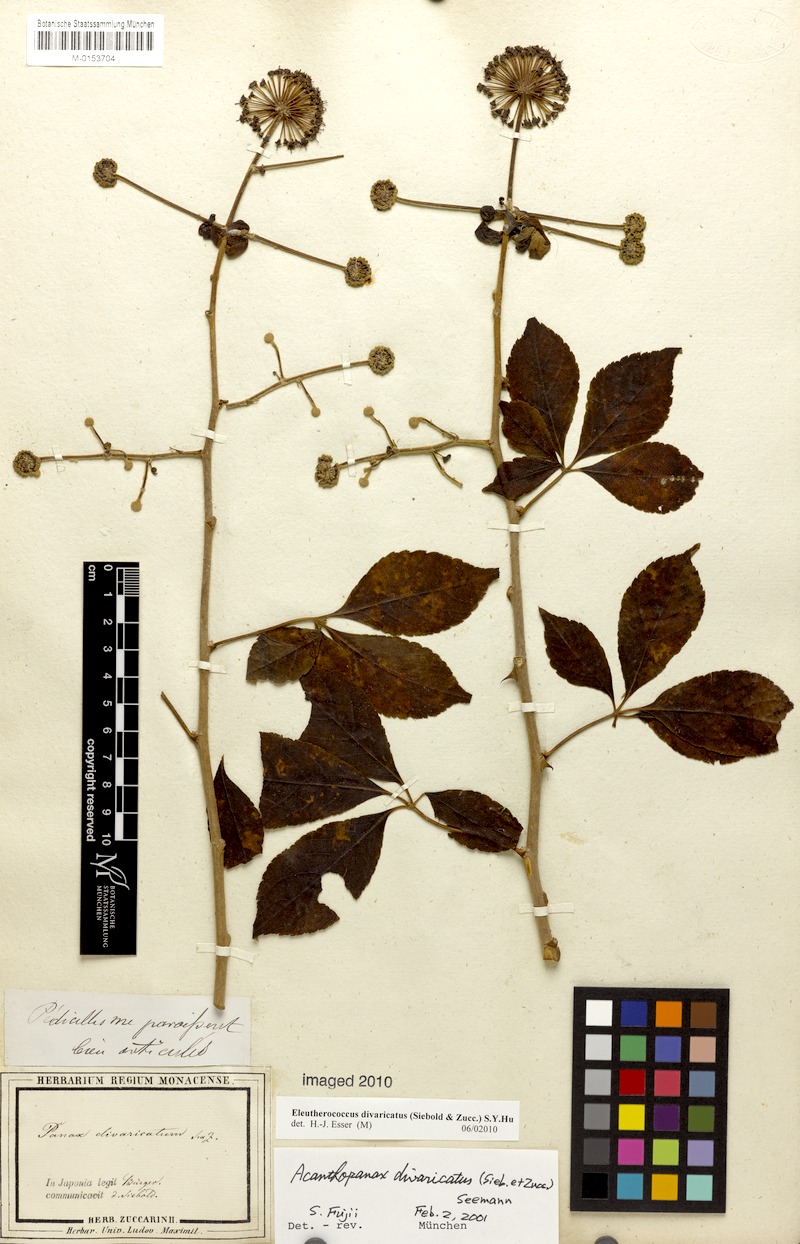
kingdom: Plantae
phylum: Tracheophyta
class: Magnoliopsida
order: Apiales
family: Araliaceae
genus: Eleutherococcus
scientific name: Eleutherococcus divaricatus
